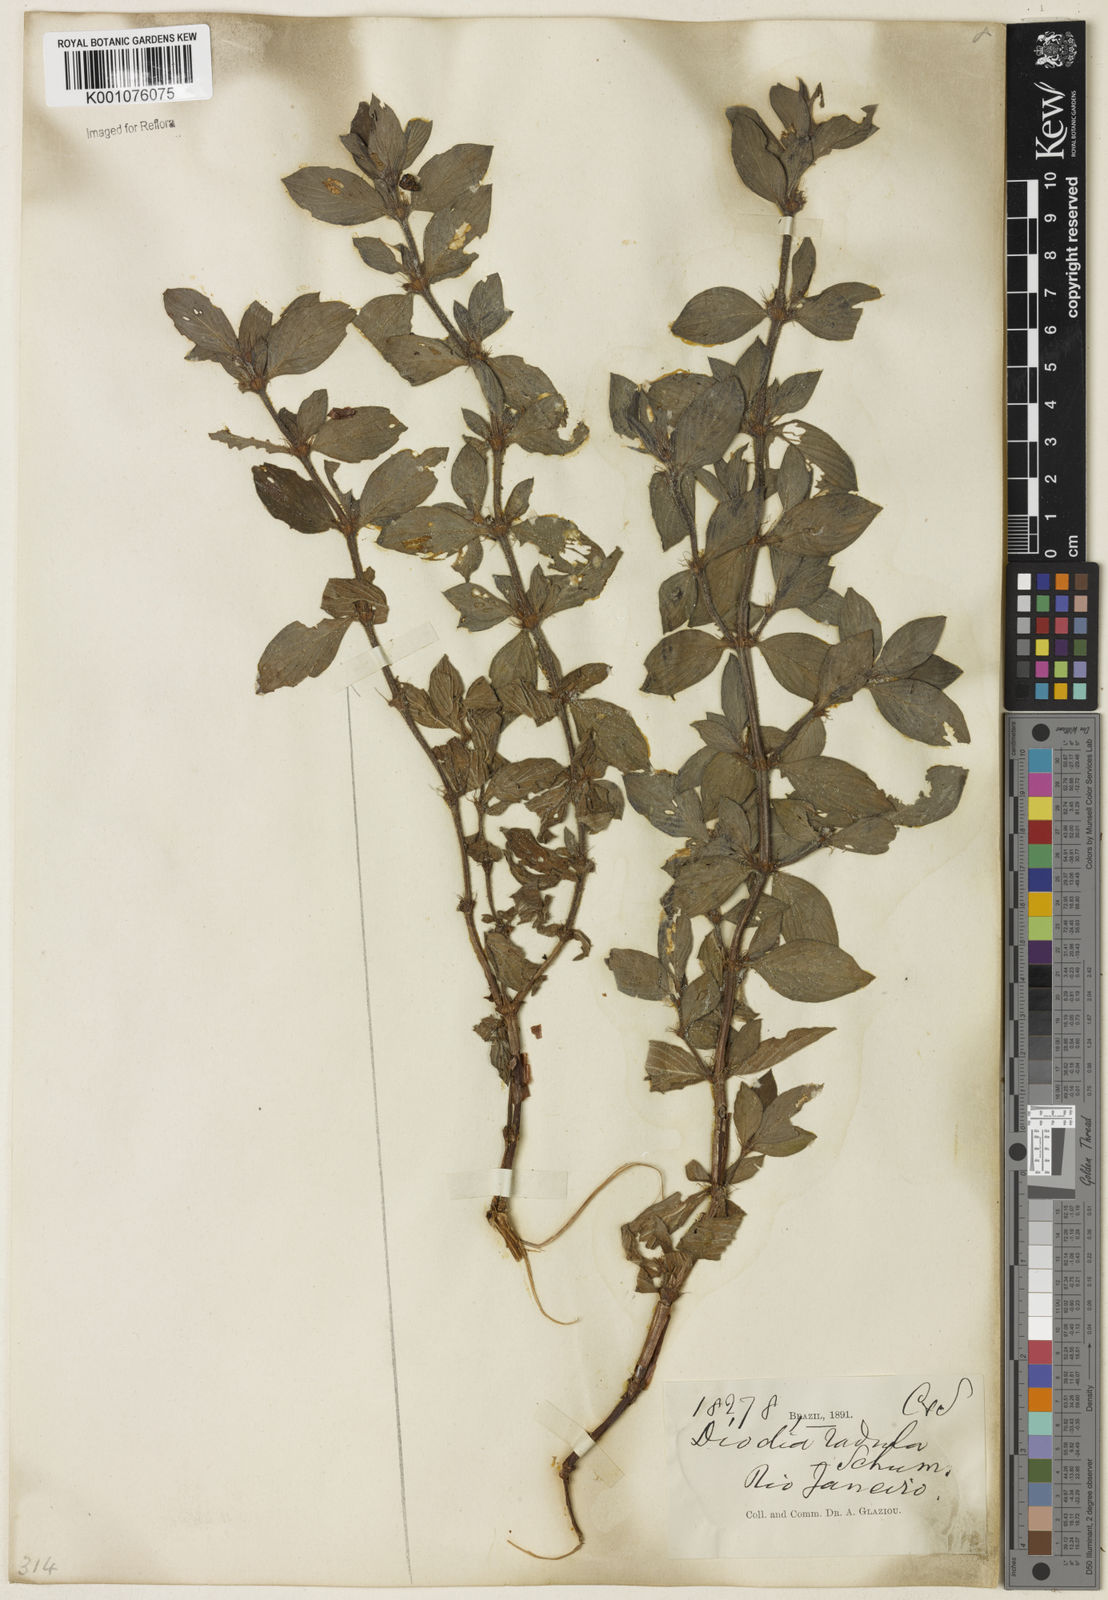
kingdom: Plantae
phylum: Tracheophyta
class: Magnoliopsida
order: Gentianales
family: Rubiaceae
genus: Hexasepalum
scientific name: Hexasepalum radulum
